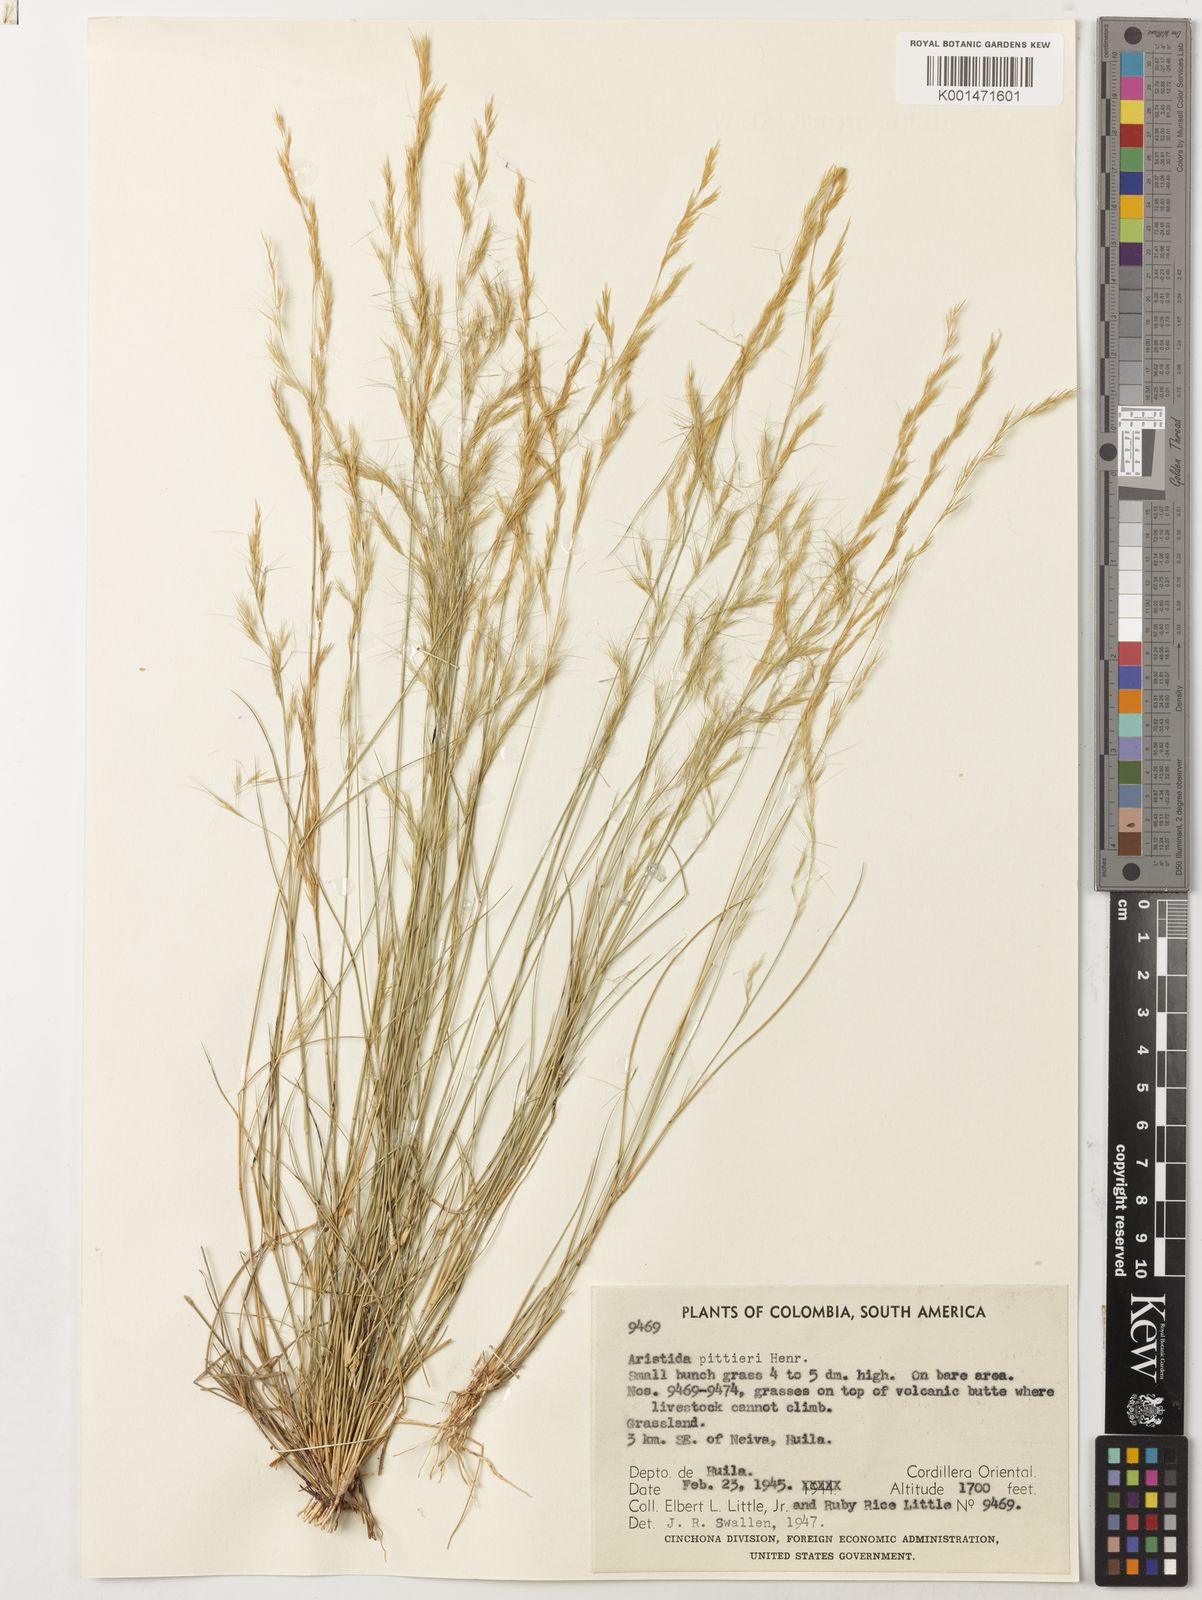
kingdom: Plantae
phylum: Tracheophyta
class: Liliopsida
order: Poales
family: Poaceae
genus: Aristida
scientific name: Aristida pittieri
